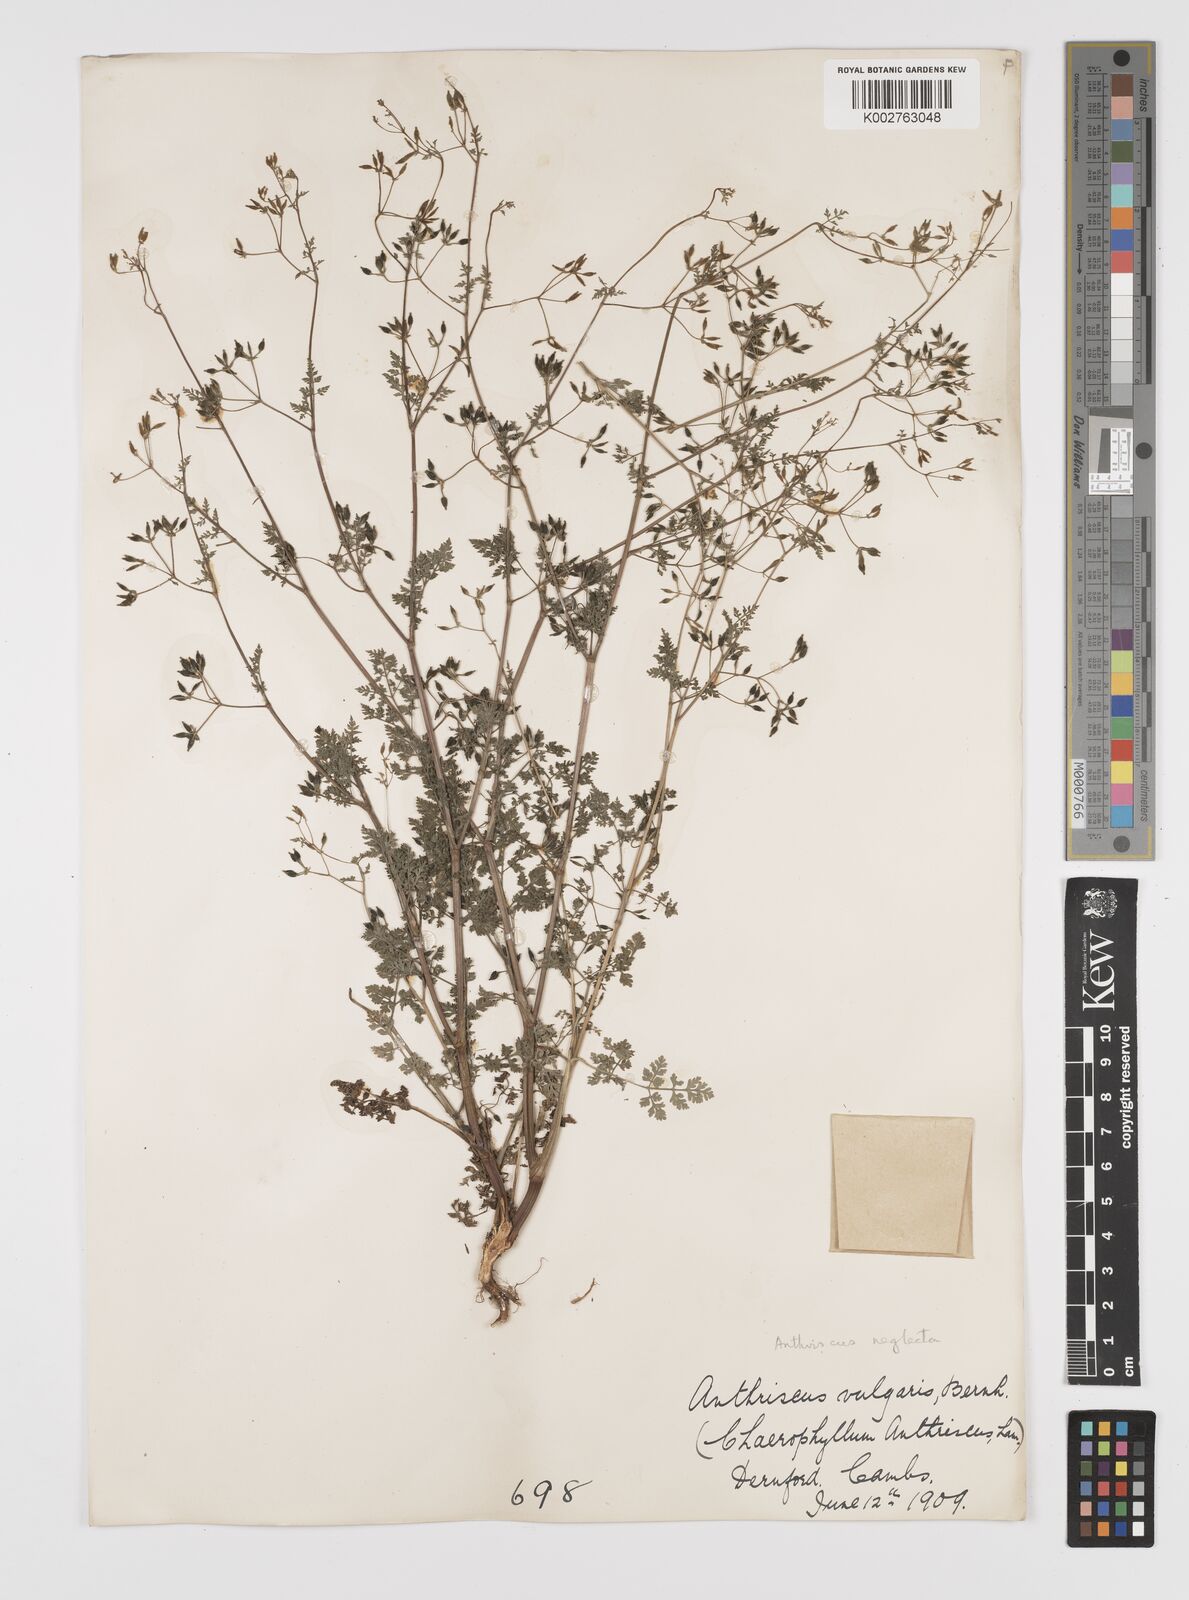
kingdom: Plantae
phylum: Tracheophyta
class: Magnoliopsida
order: Apiales
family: Apiaceae
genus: Anthriscus
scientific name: Anthriscus caucalis
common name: Bur chervil
